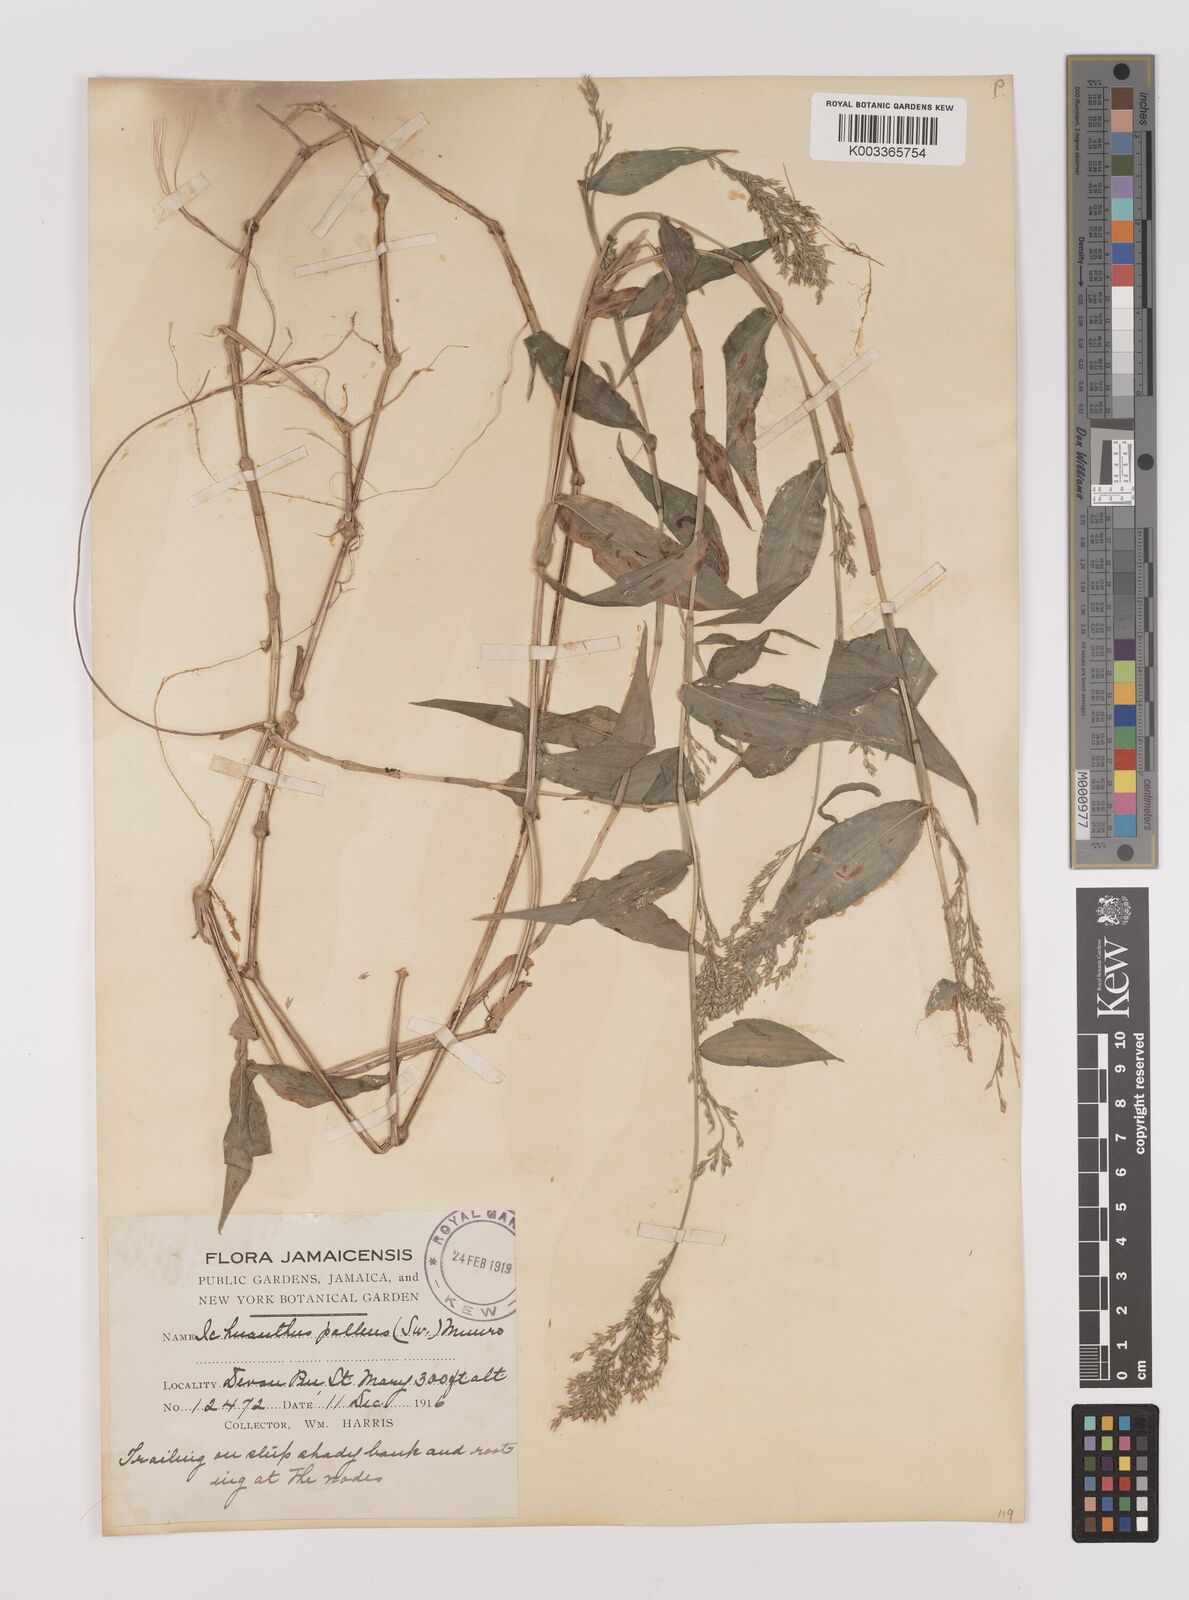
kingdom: Plantae
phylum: Tracheophyta
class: Liliopsida
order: Poales
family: Poaceae
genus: Ichnanthus
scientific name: Ichnanthus pallens
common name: Water grass
